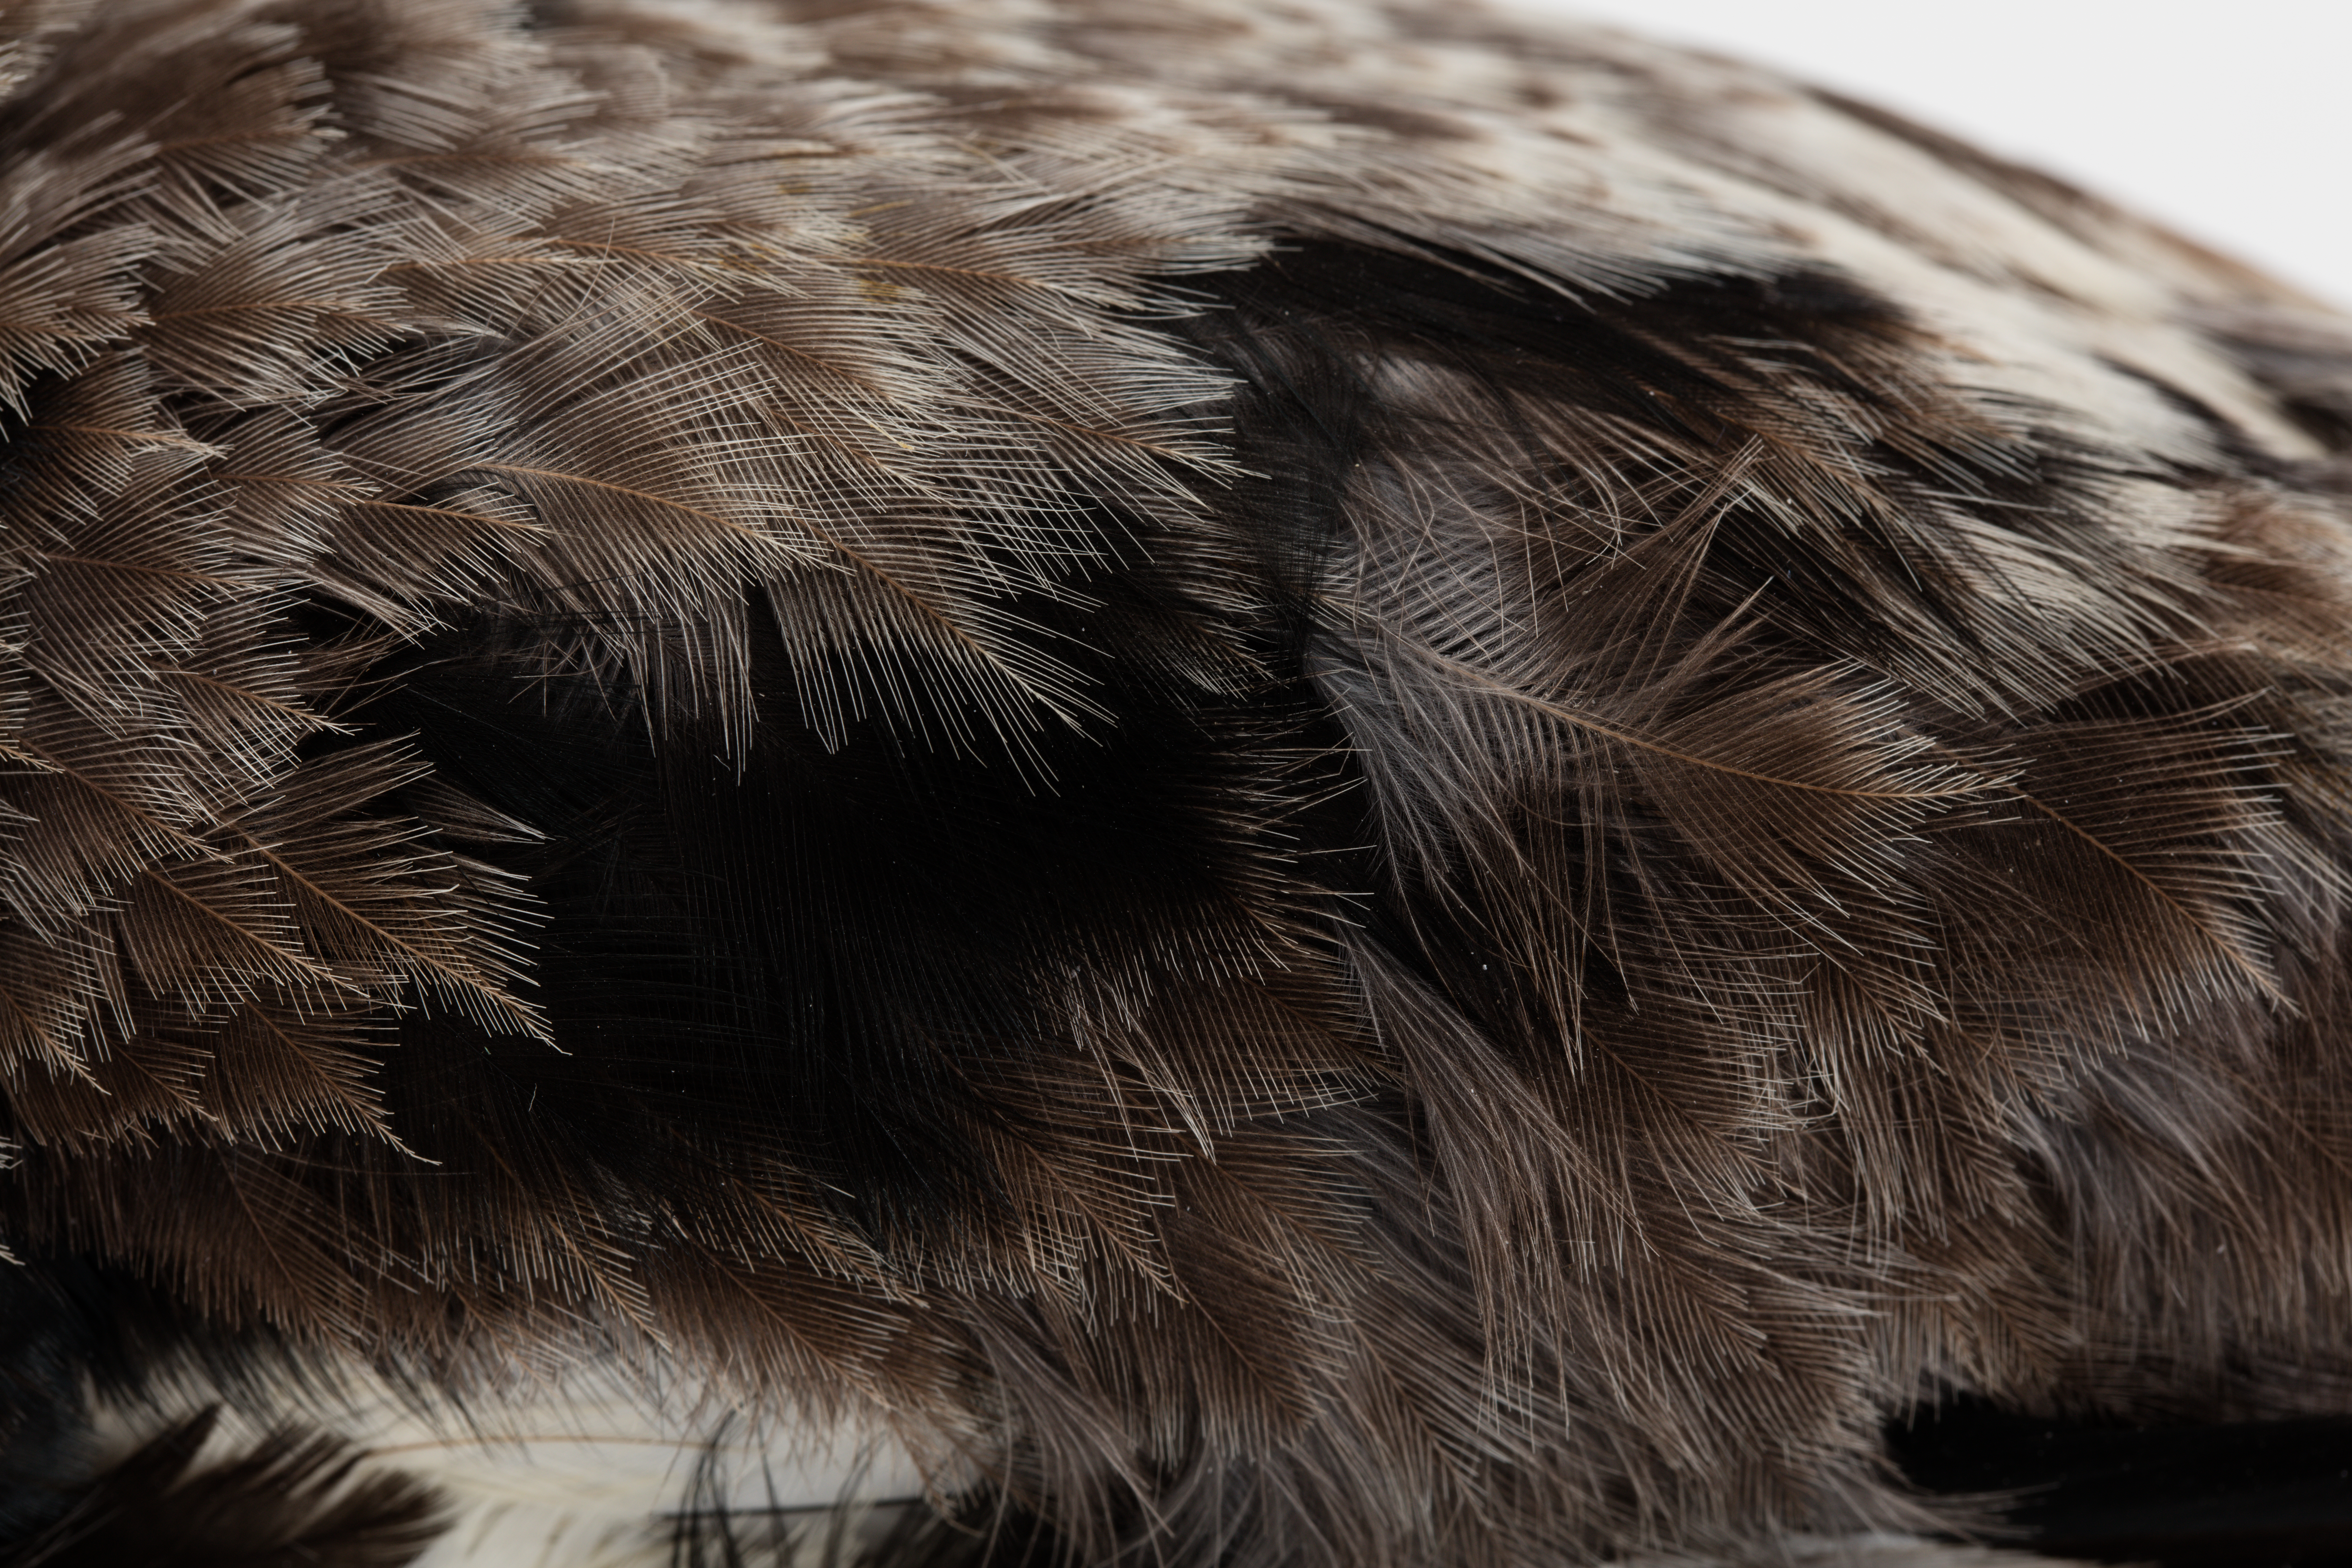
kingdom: Animalia
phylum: Chordata
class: Aves
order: Passeriformes
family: Cracticidae
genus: Gymnorhina
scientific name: Gymnorhina tibicen
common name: Australian magpie
